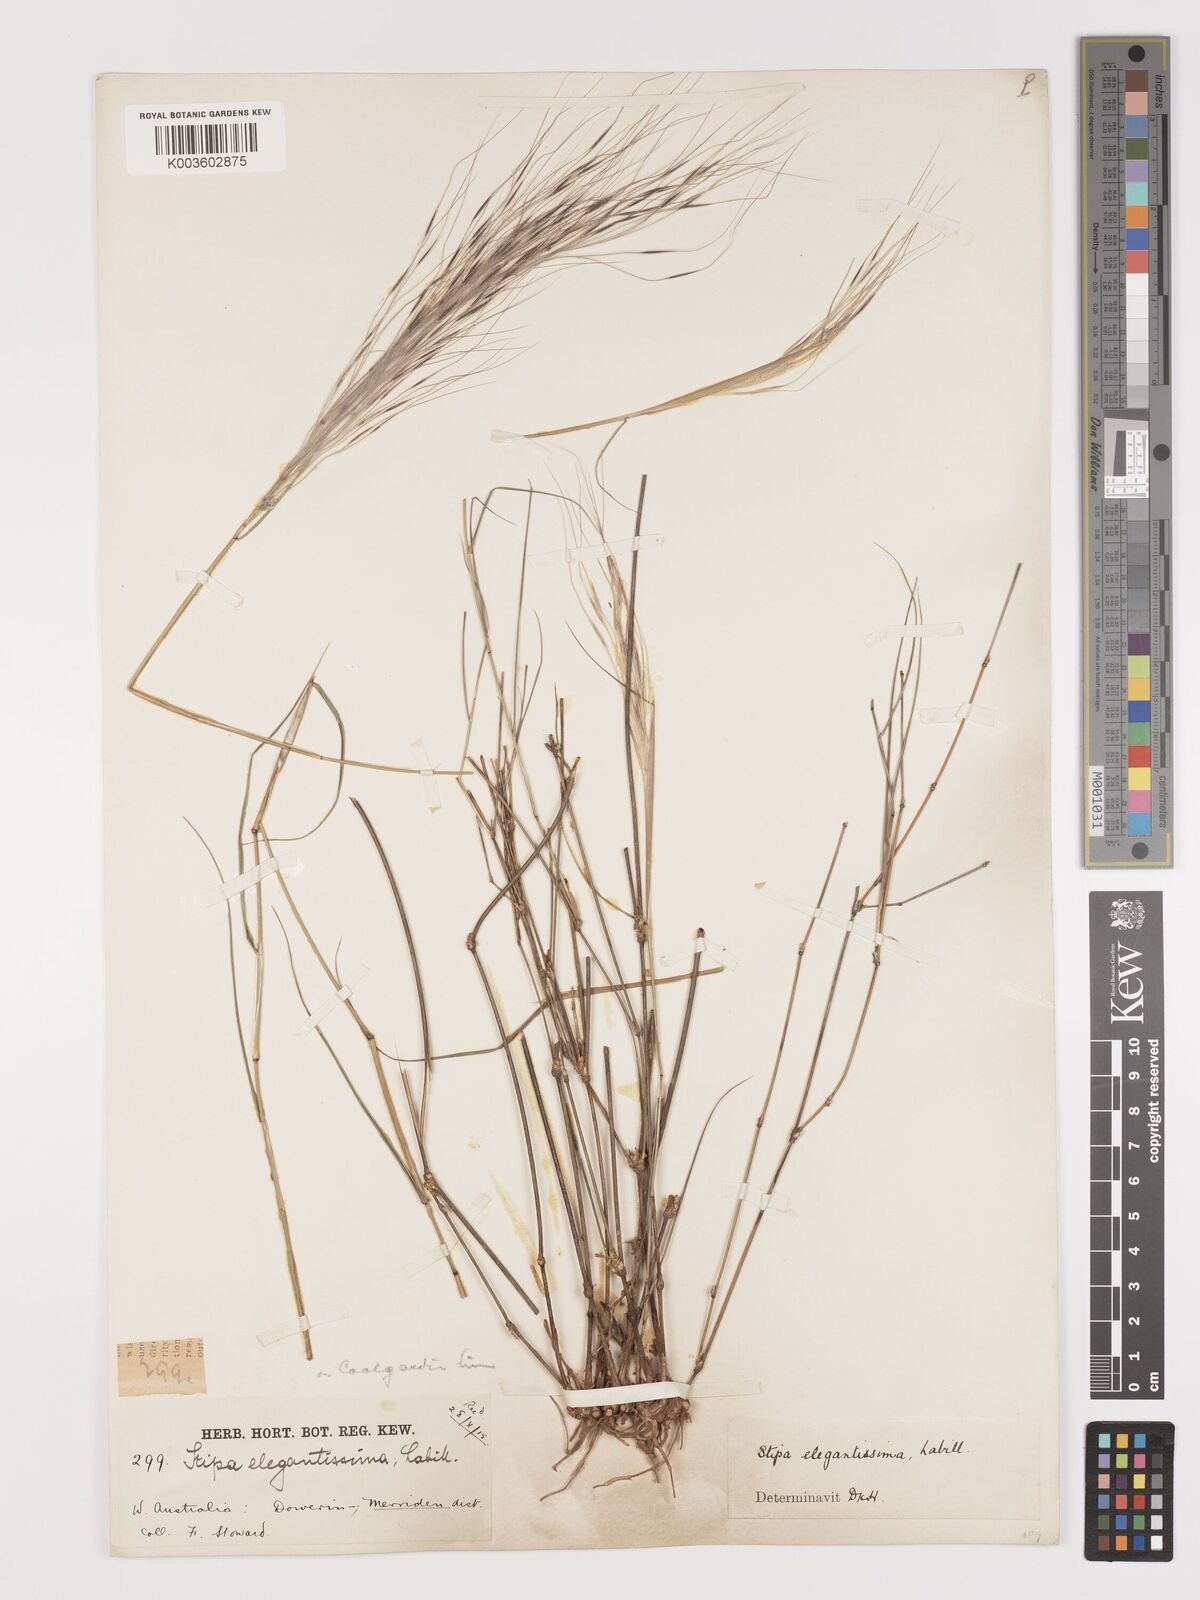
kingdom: Plantae
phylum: Tracheophyta
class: Liliopsida
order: Poales
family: Poaceae
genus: Austrostipa
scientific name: Austrostipa elegantissima
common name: Feather spear grass
